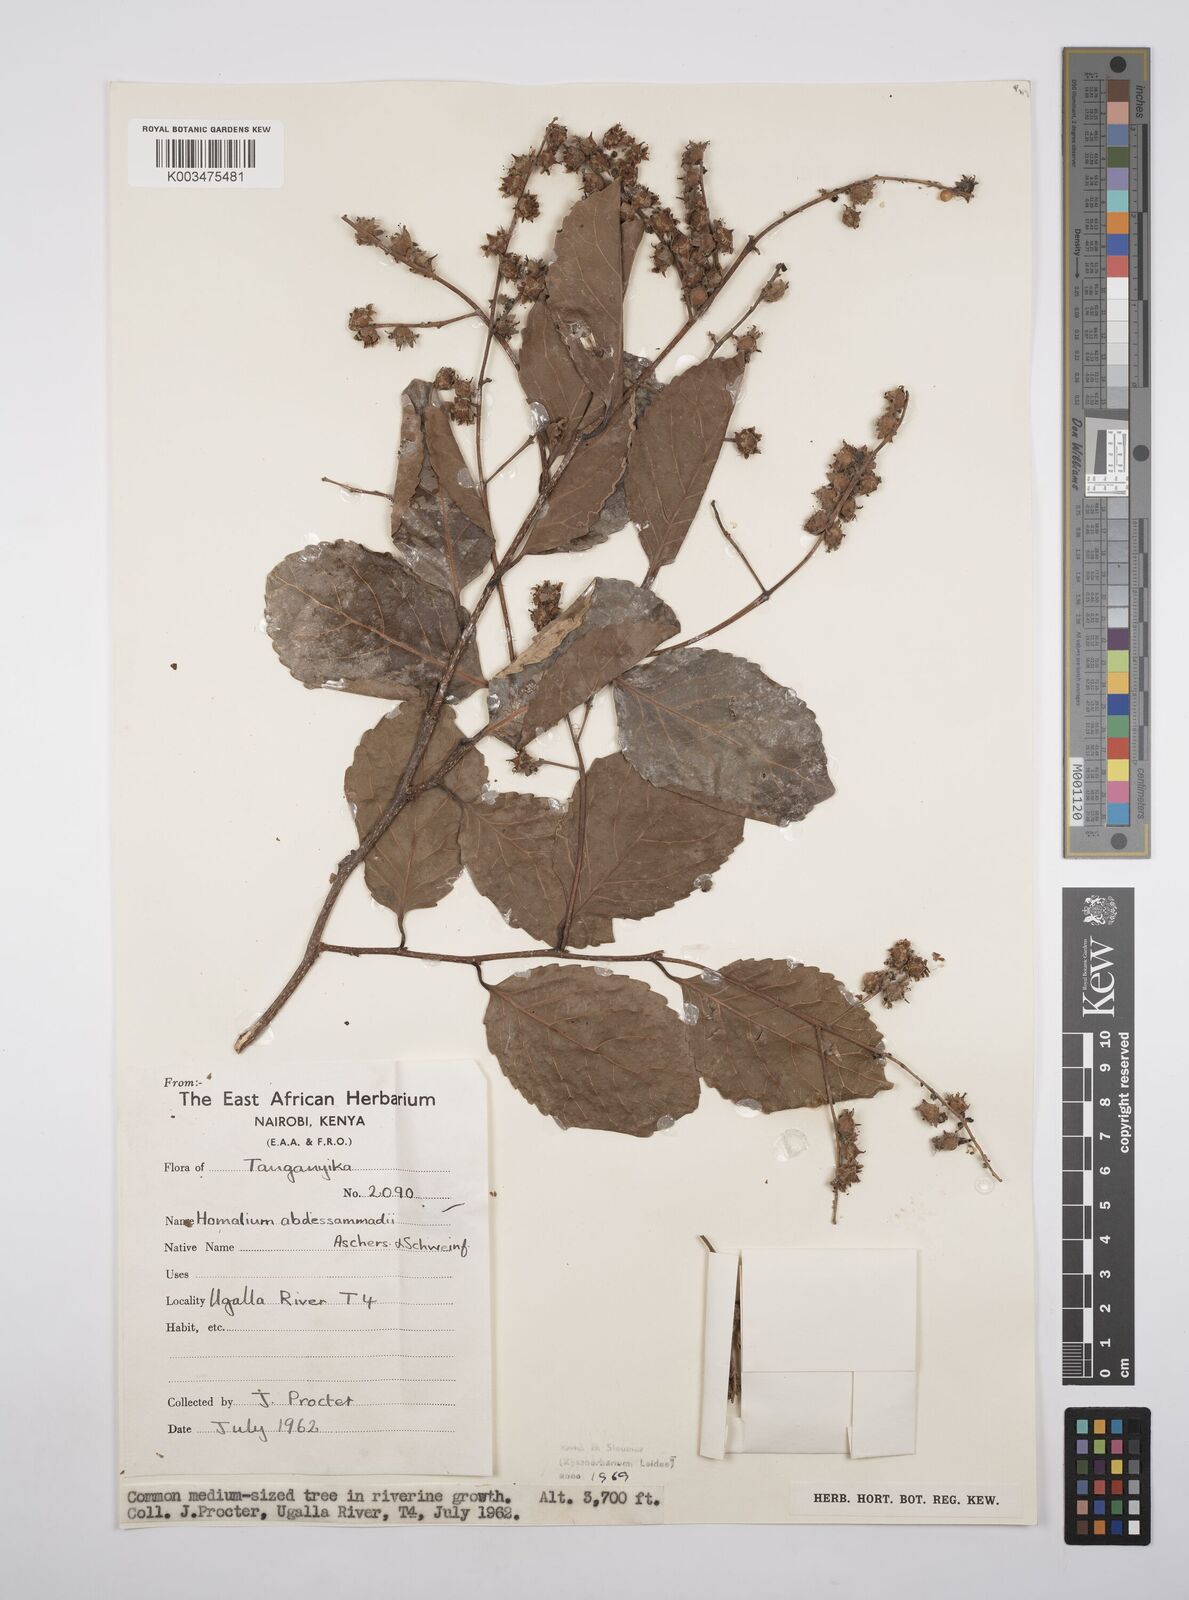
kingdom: Plantae
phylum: Tracheophyta
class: Magnoliopsida
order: Malpighiales
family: Salicaceae
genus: Homalium
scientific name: Homalium abdessammadii
